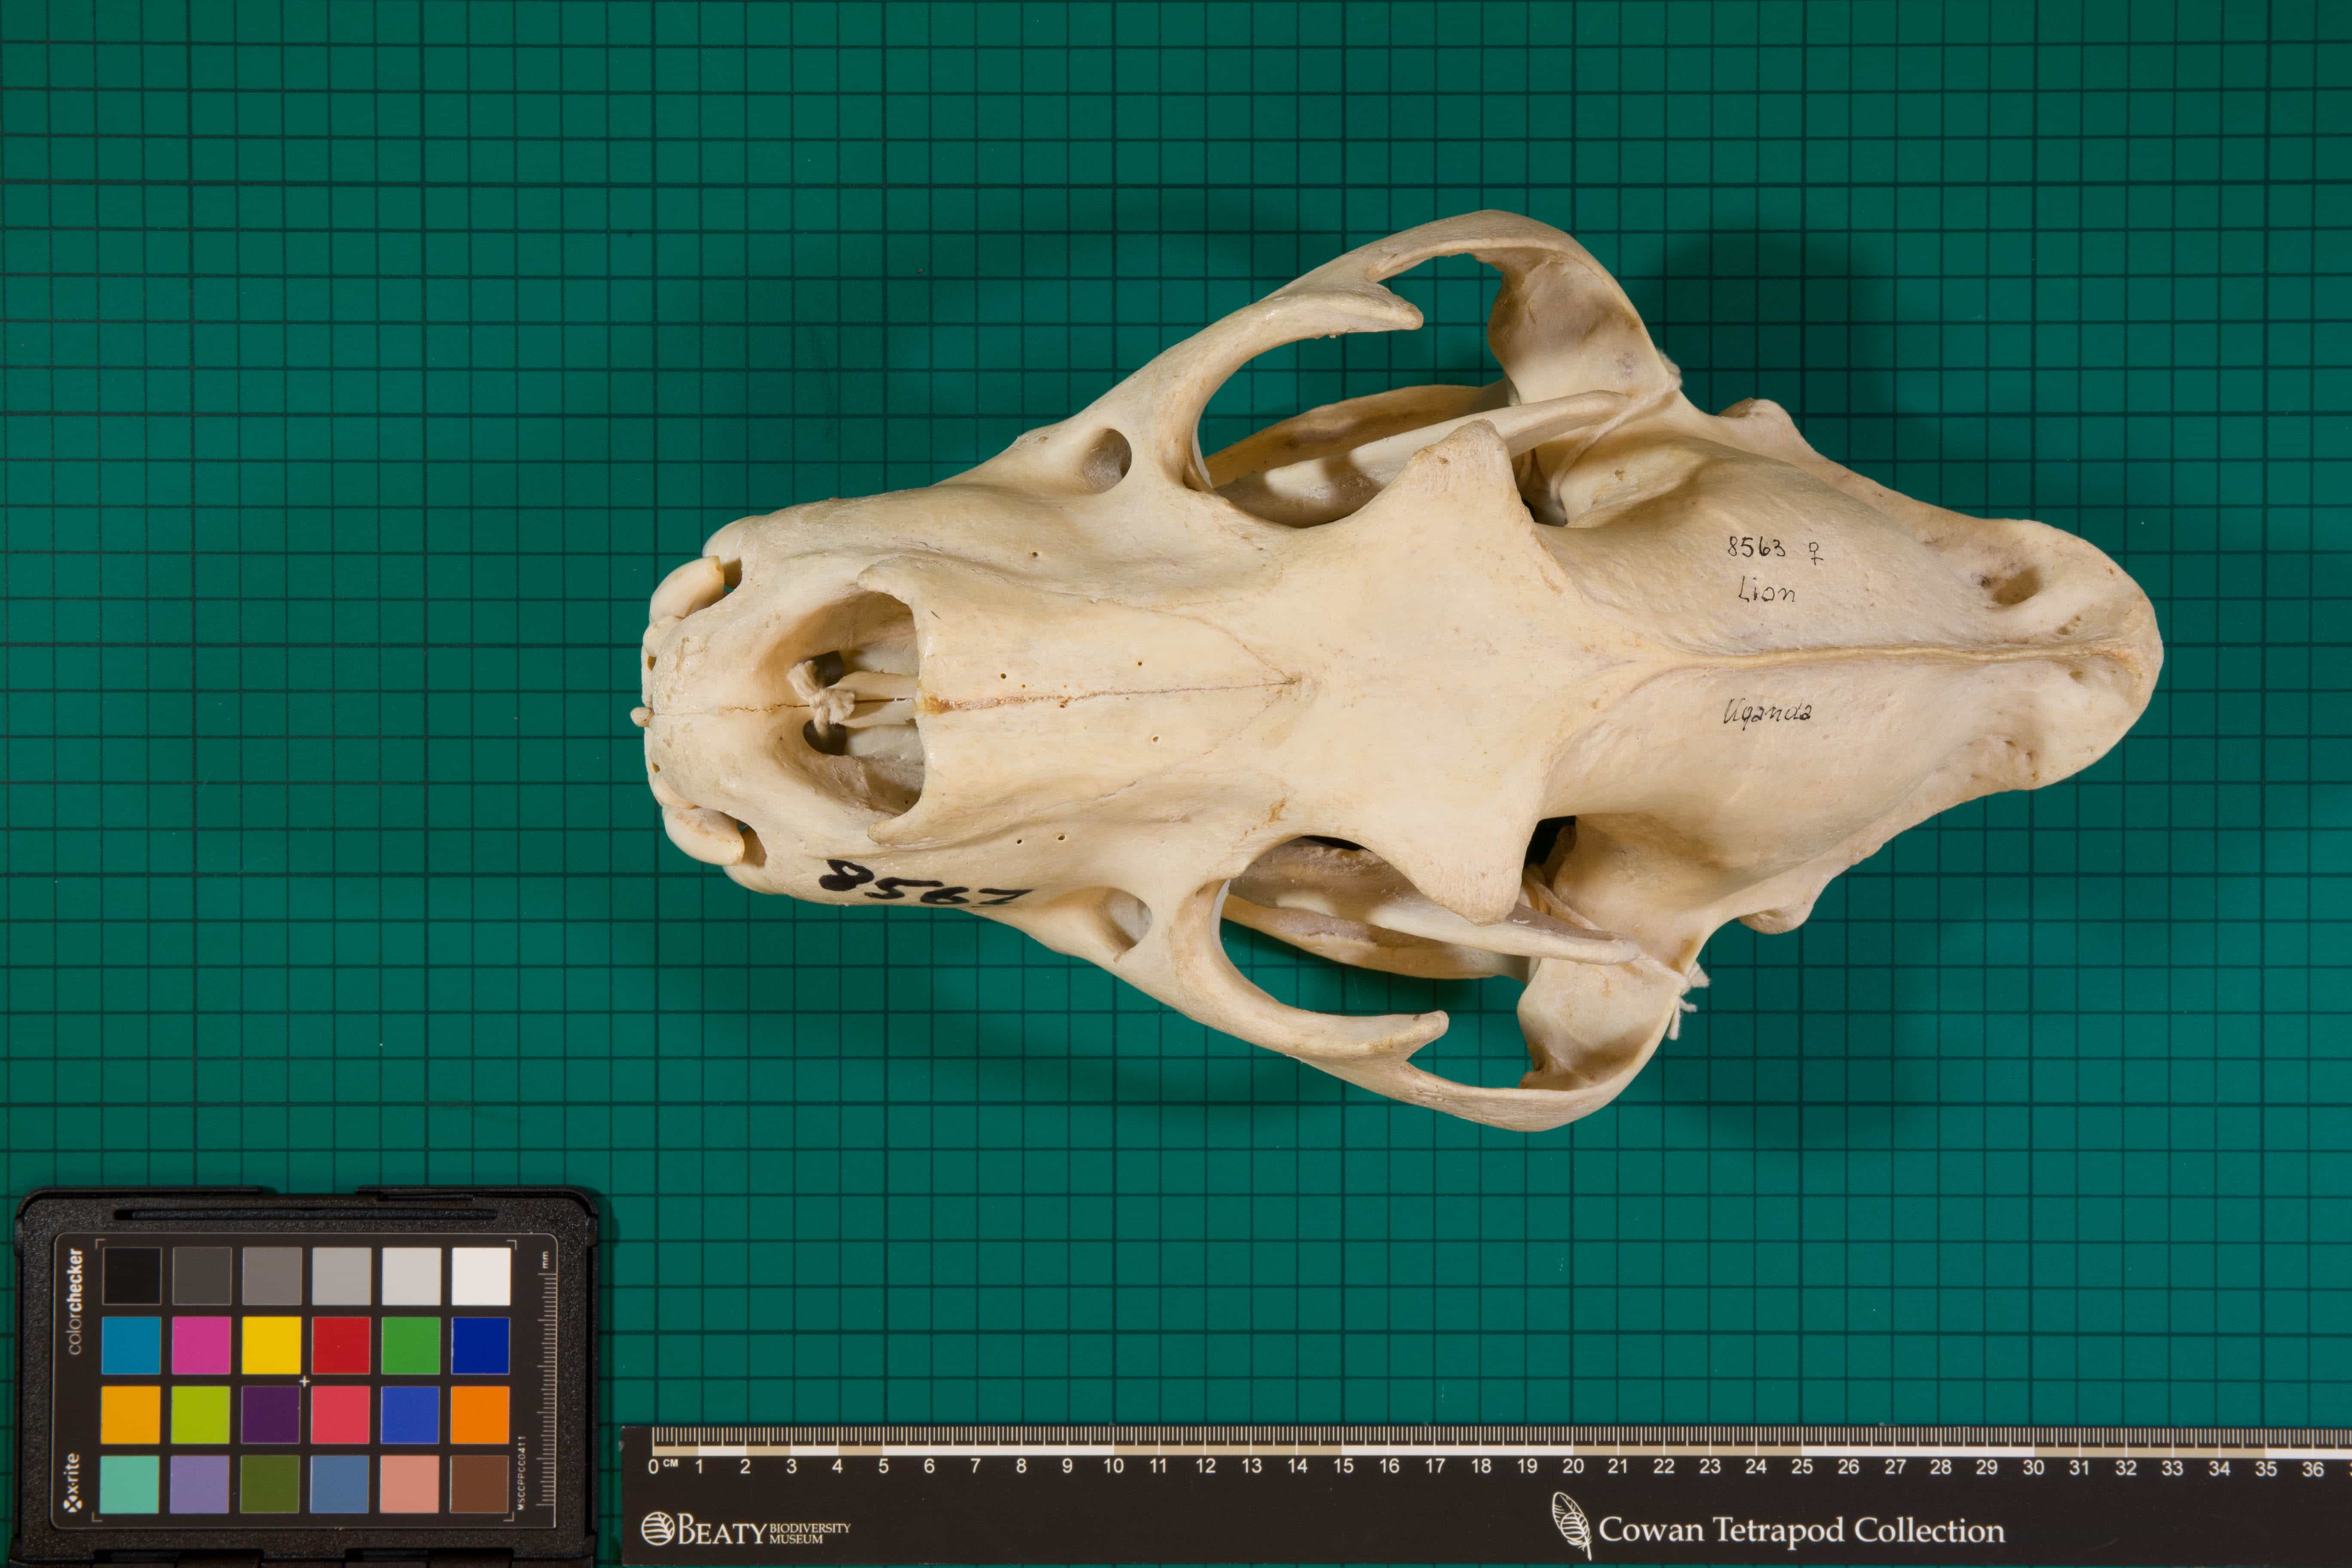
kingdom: Animalia
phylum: Chordata
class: Mammalia
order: Carnivora
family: Felidae
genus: Panthera
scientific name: Panthera leo
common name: Lion
